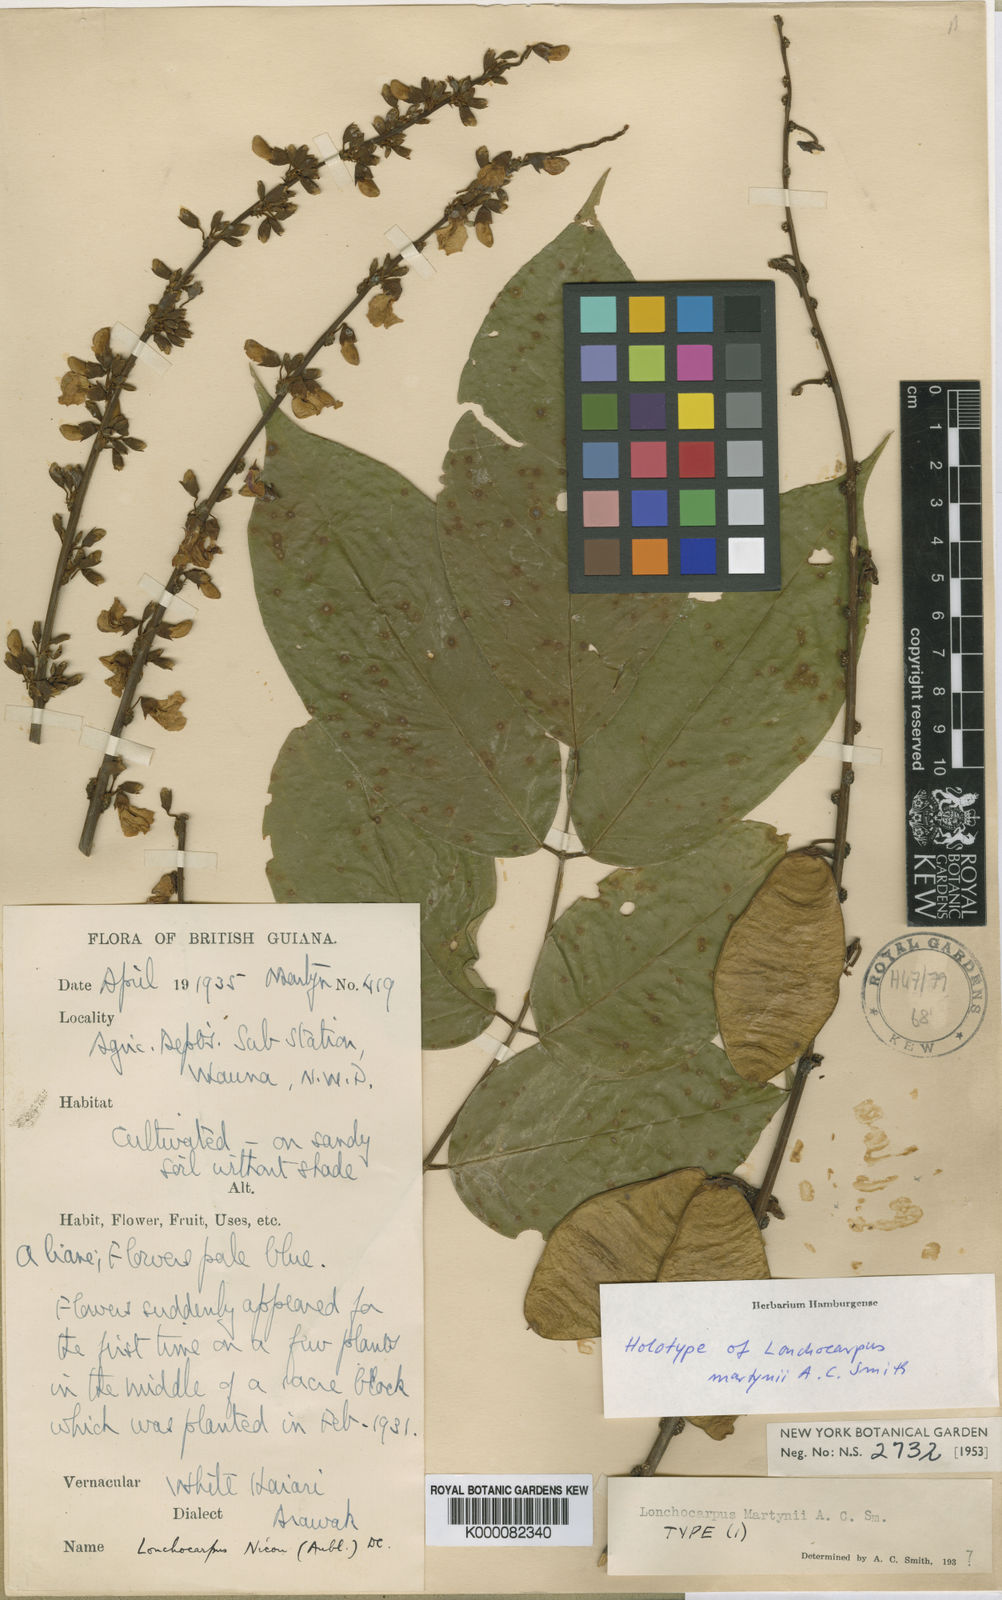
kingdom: Plantae
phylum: Tracheophyta
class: Magnoliopsida
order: Fabales
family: Fabaceae
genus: Lonchocarpus
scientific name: Lonchocarpus
